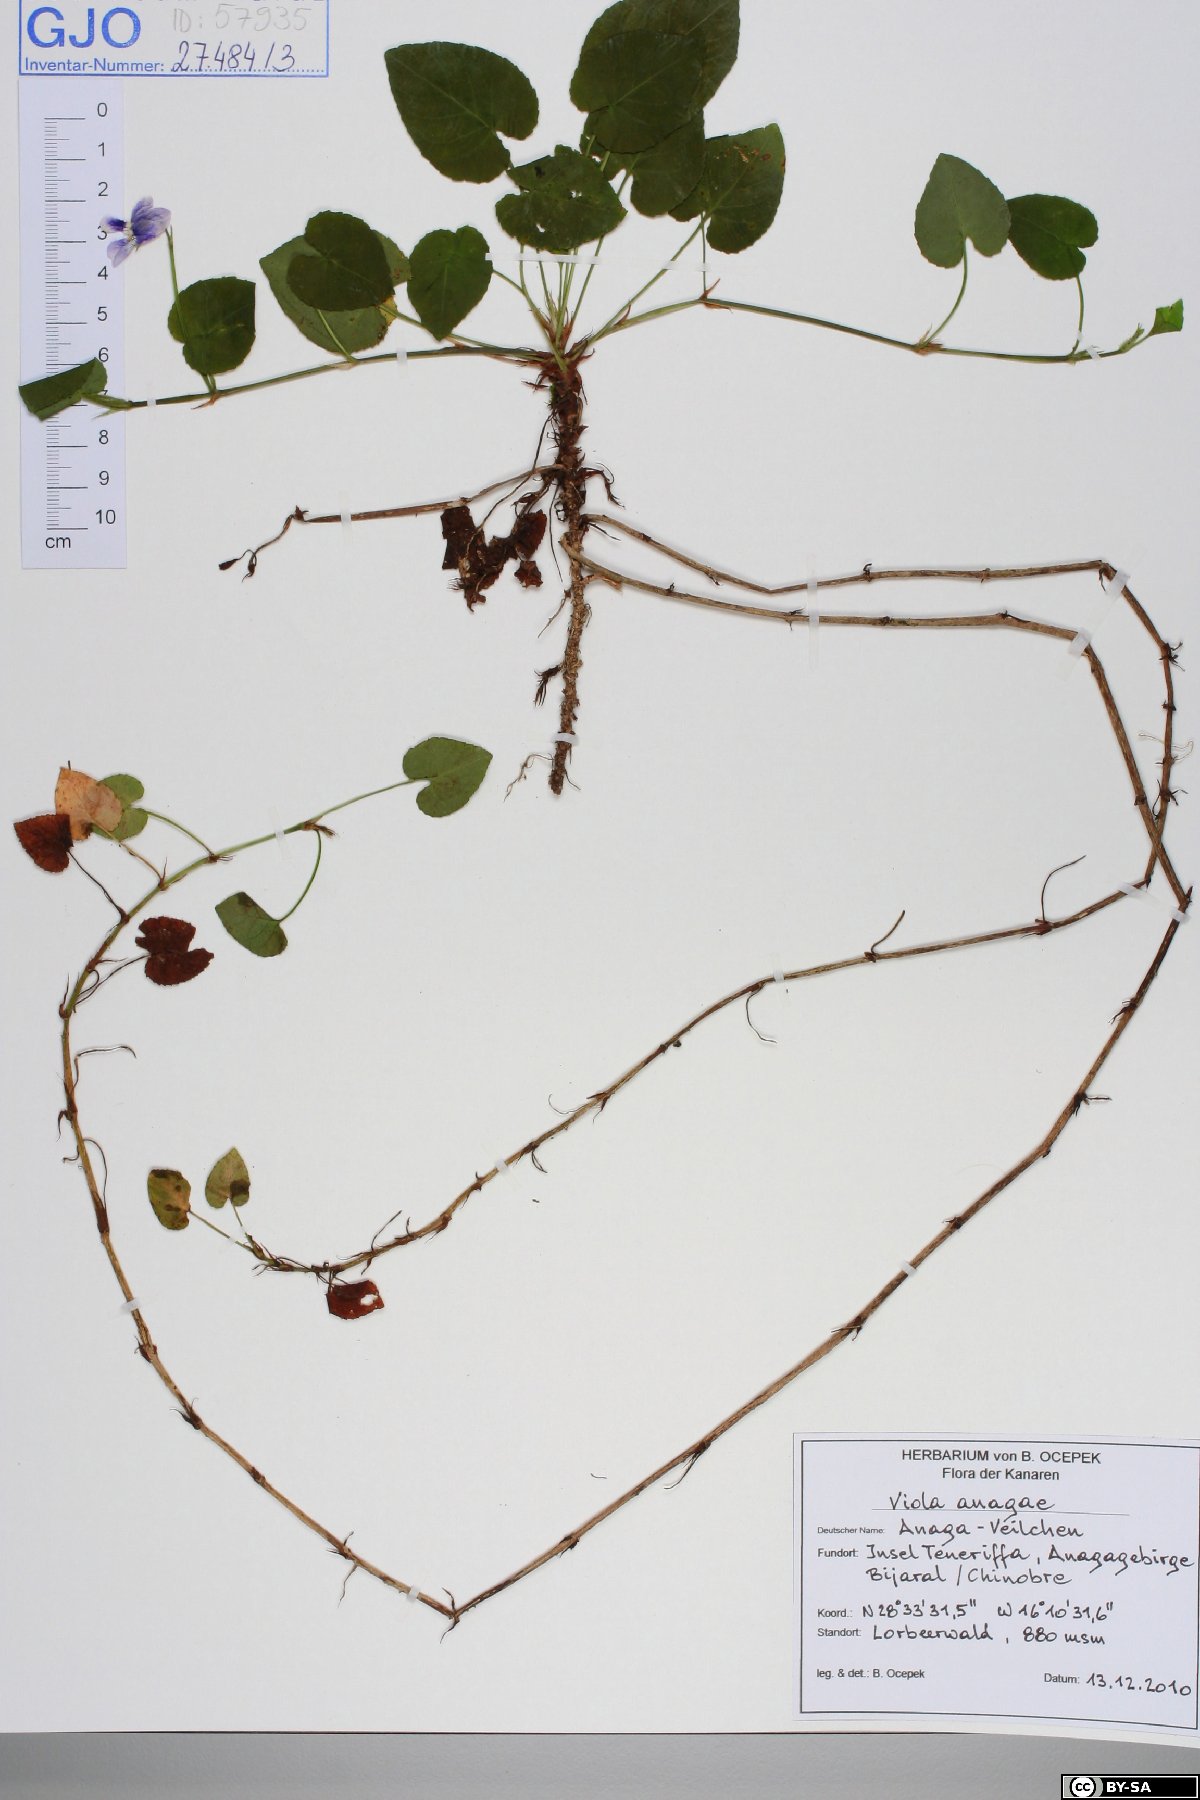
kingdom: Plantae
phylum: Tracheophyta
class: Magnoliopsida
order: Malpighiales
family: Violaceae
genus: Viola
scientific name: Viola anagae
